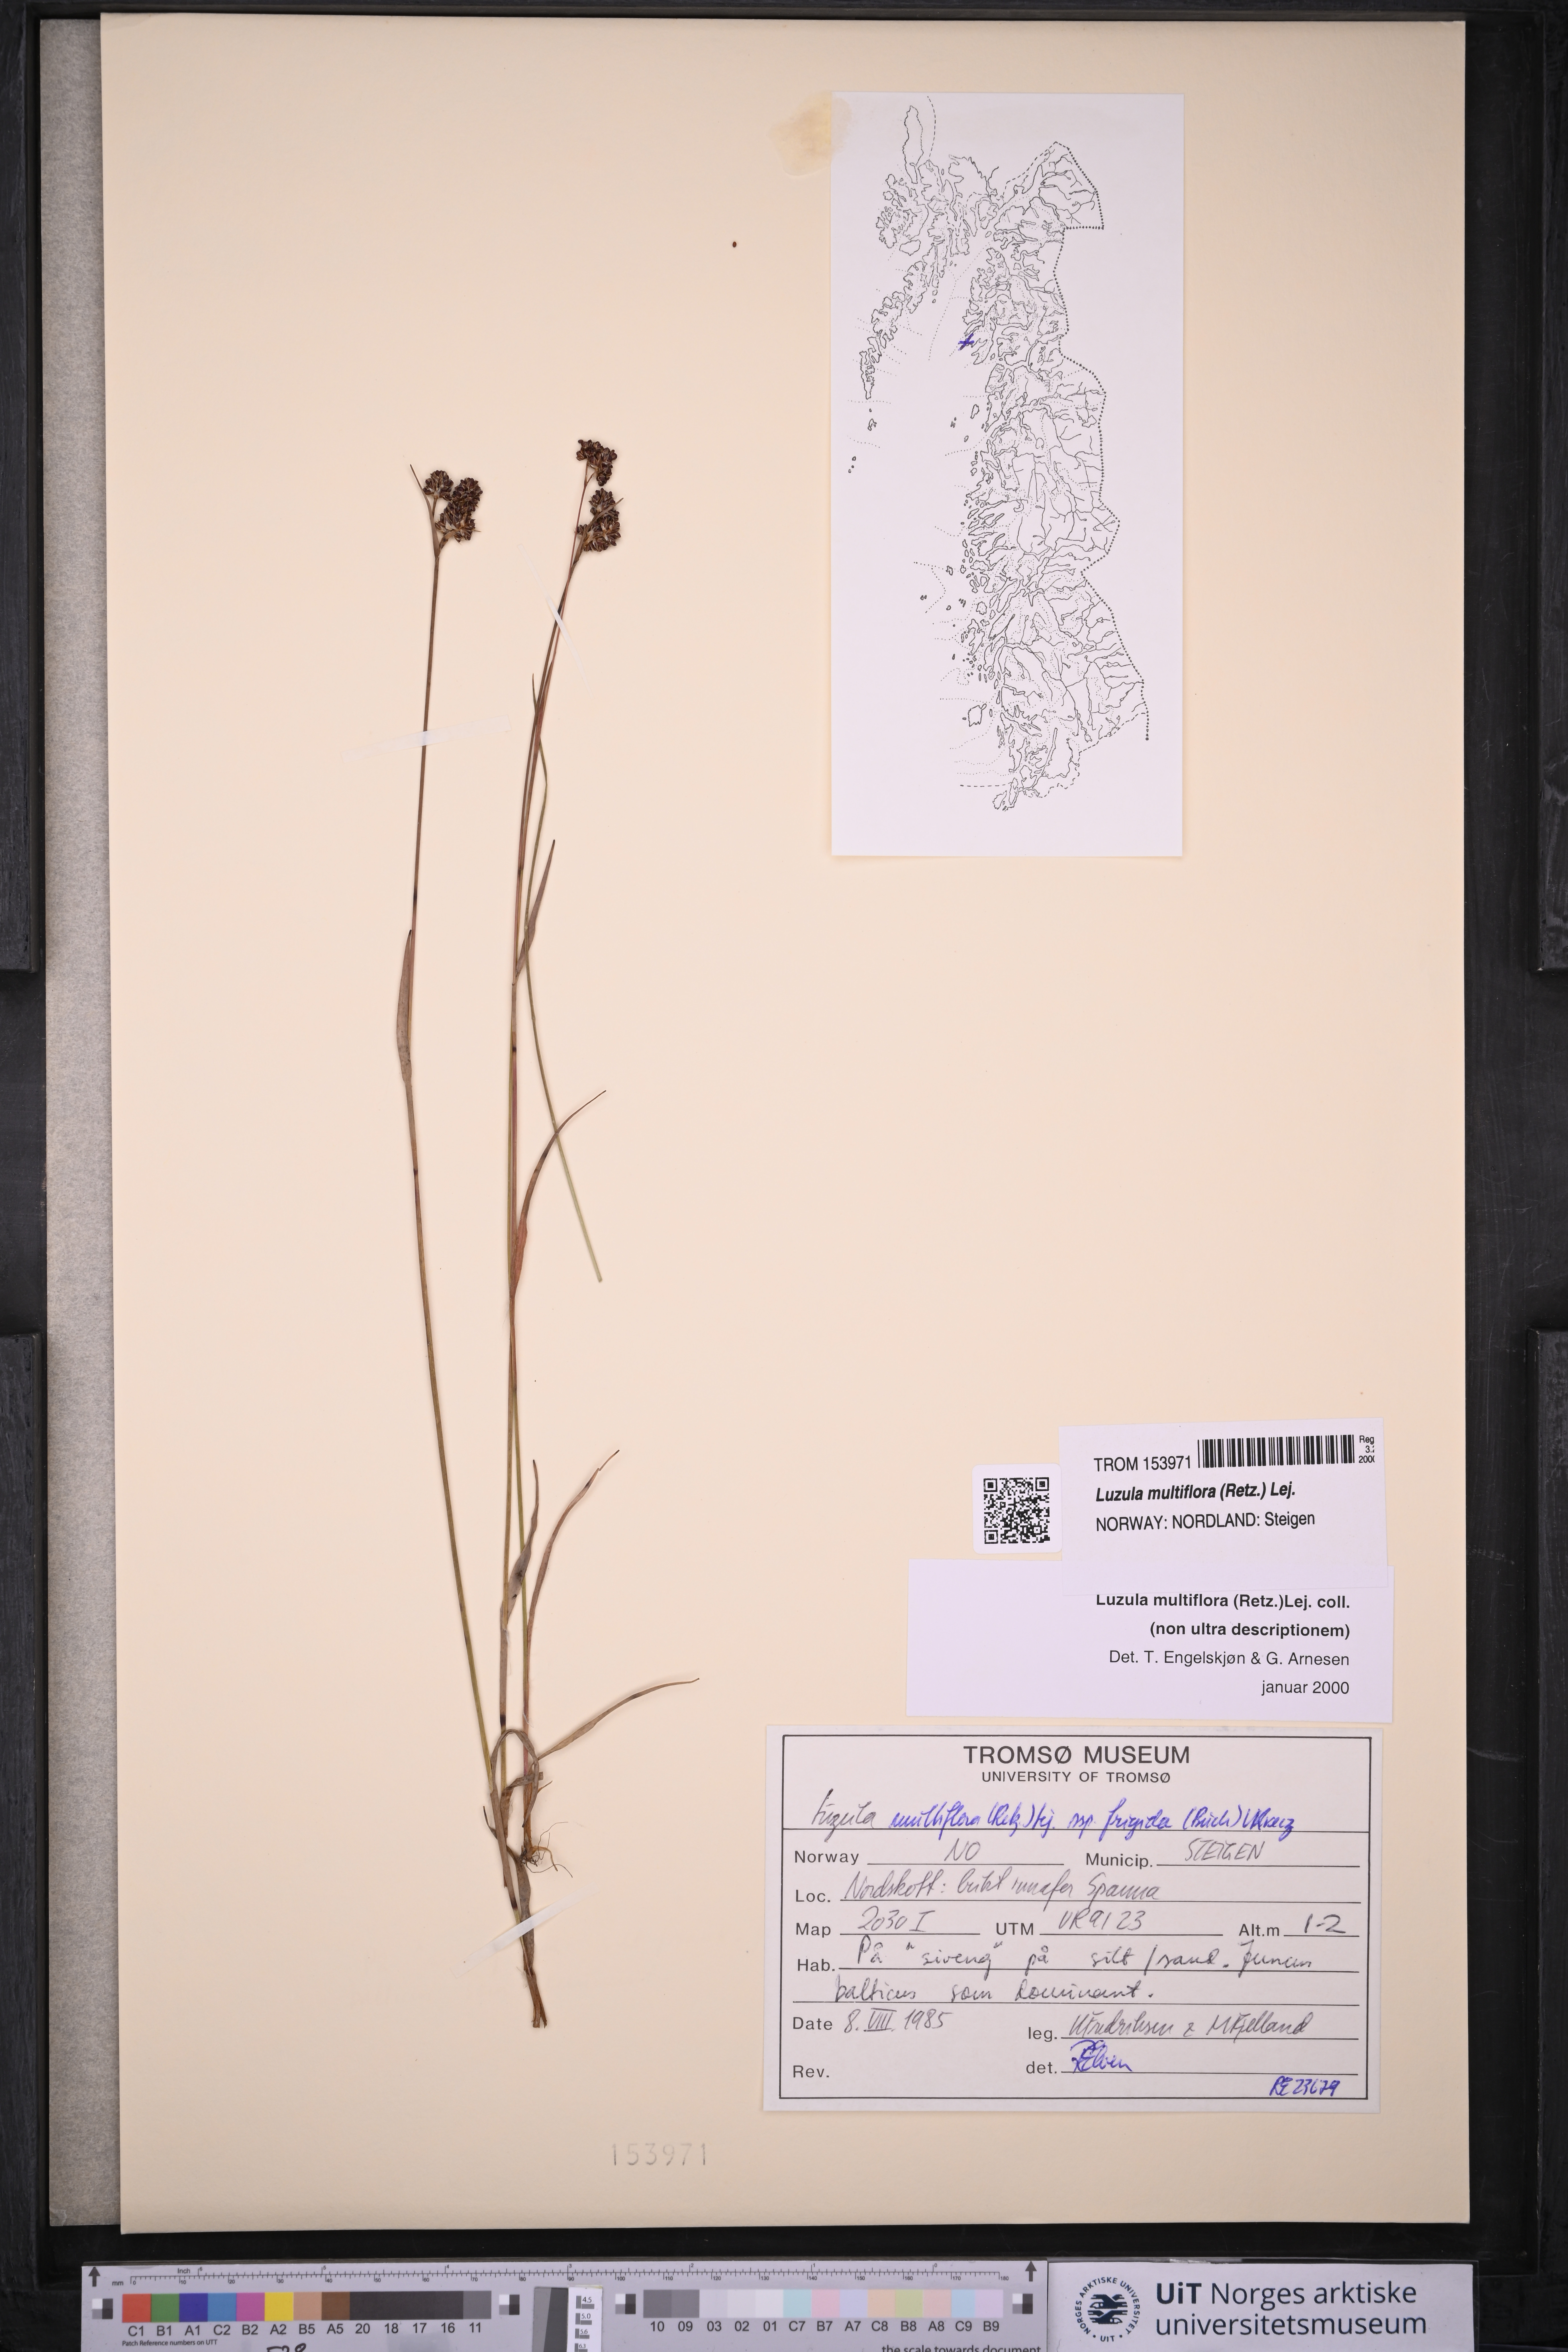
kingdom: Plantae
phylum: Tracheophyta
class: Liliopsida
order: Poales
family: Juncaceae
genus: Luzula
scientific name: Luzula multiflora
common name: Heath wood-rush
